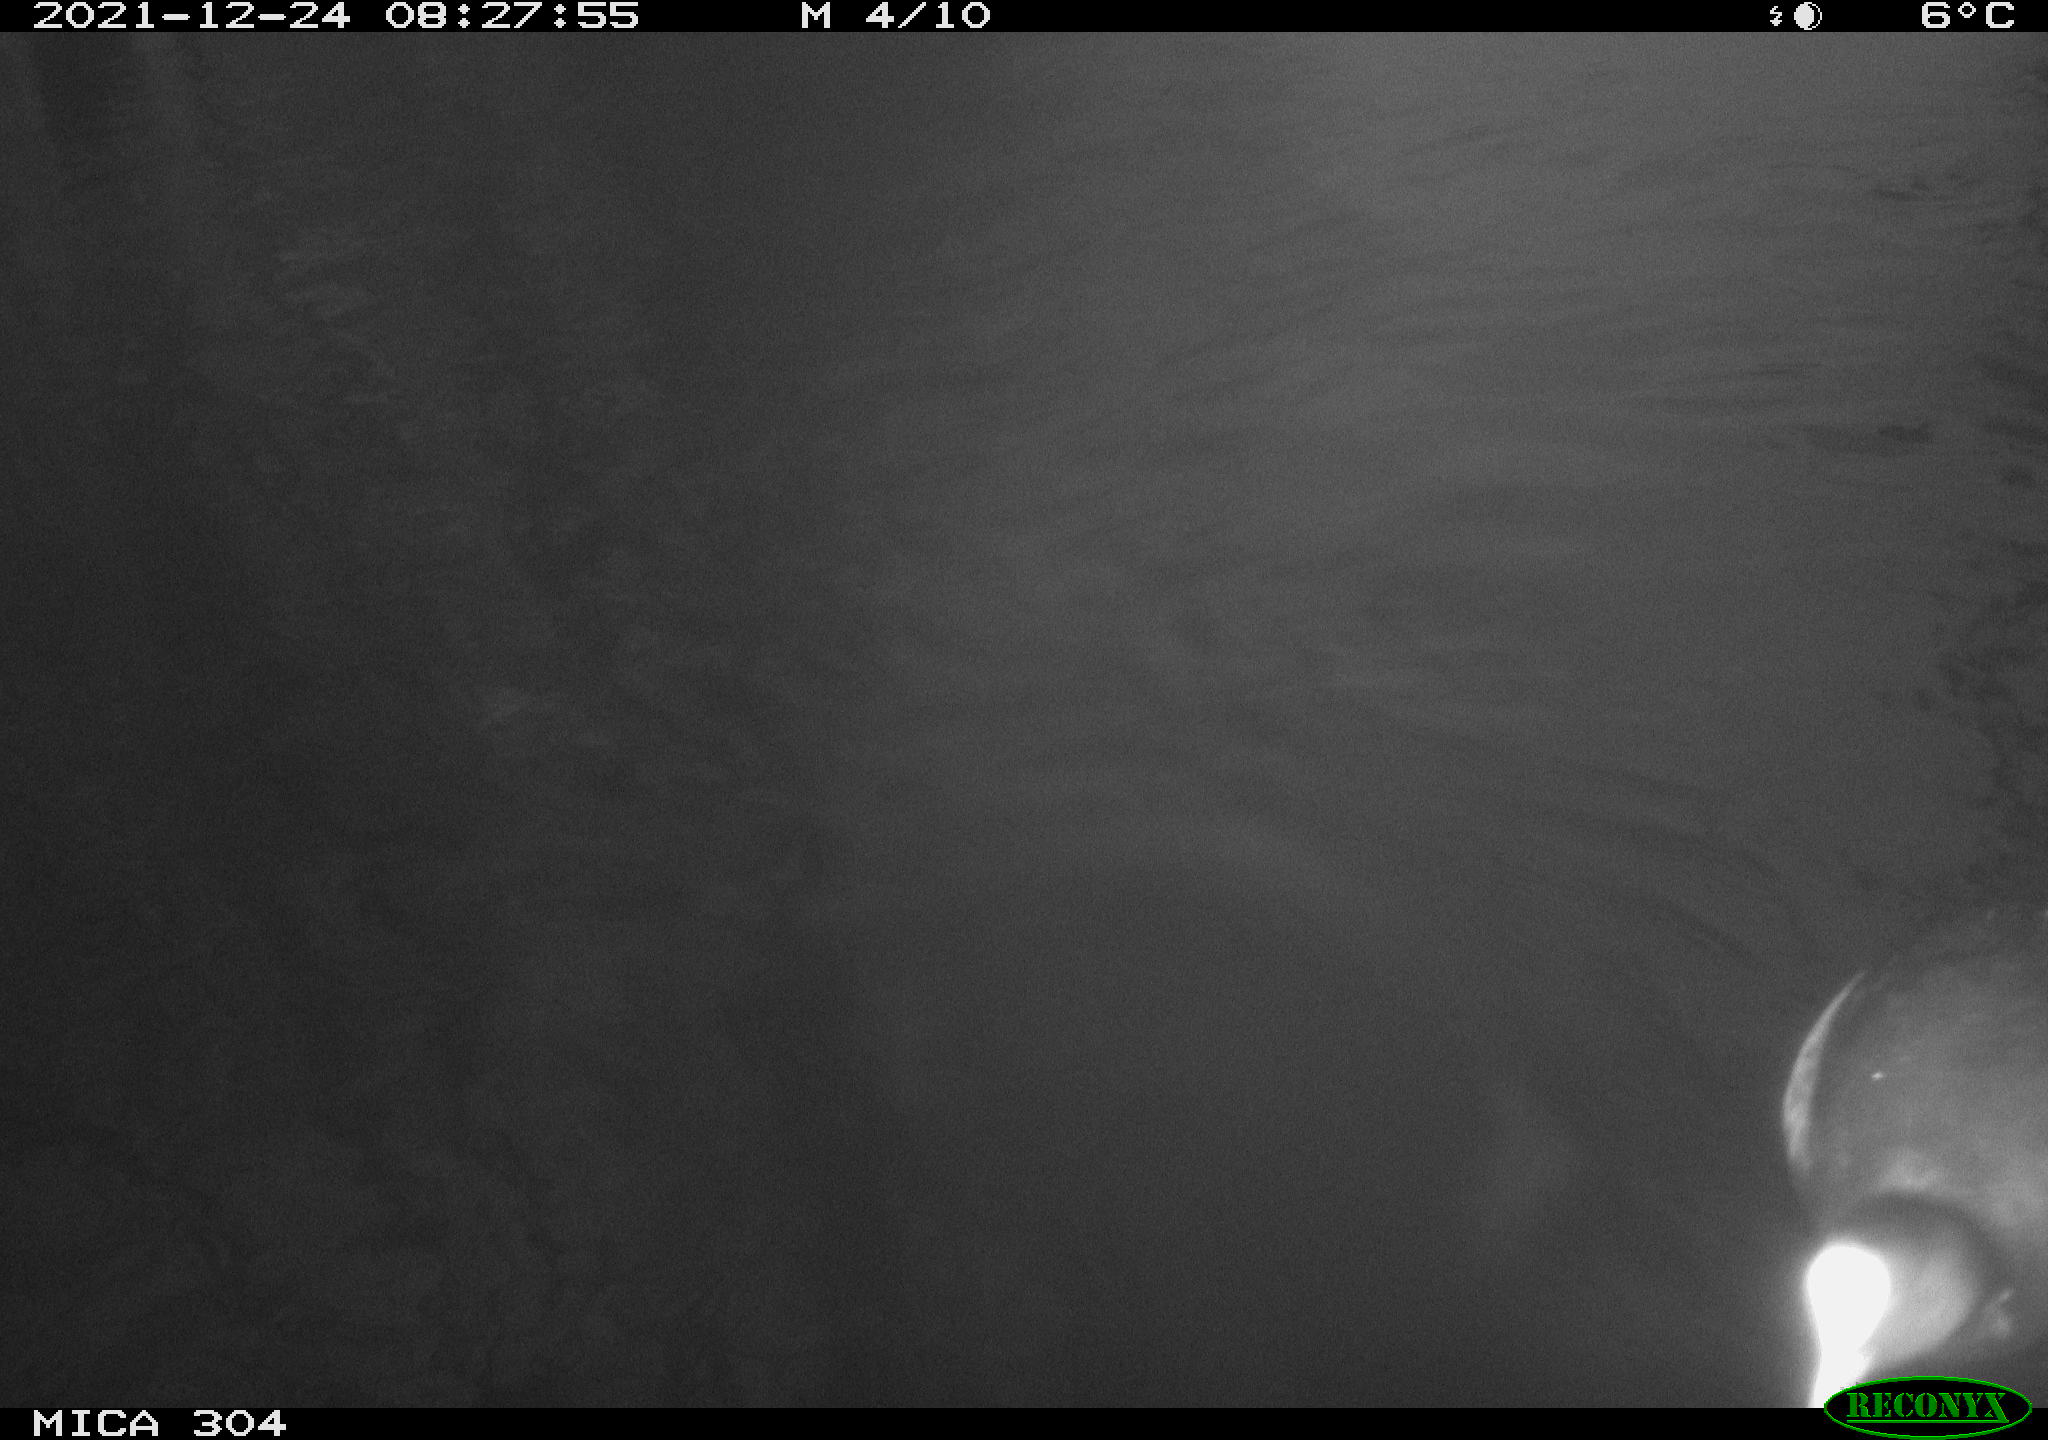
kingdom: Animalia
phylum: Chordata
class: Aves
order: Anseriformes
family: Anatidae
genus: Anas
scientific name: Anas
